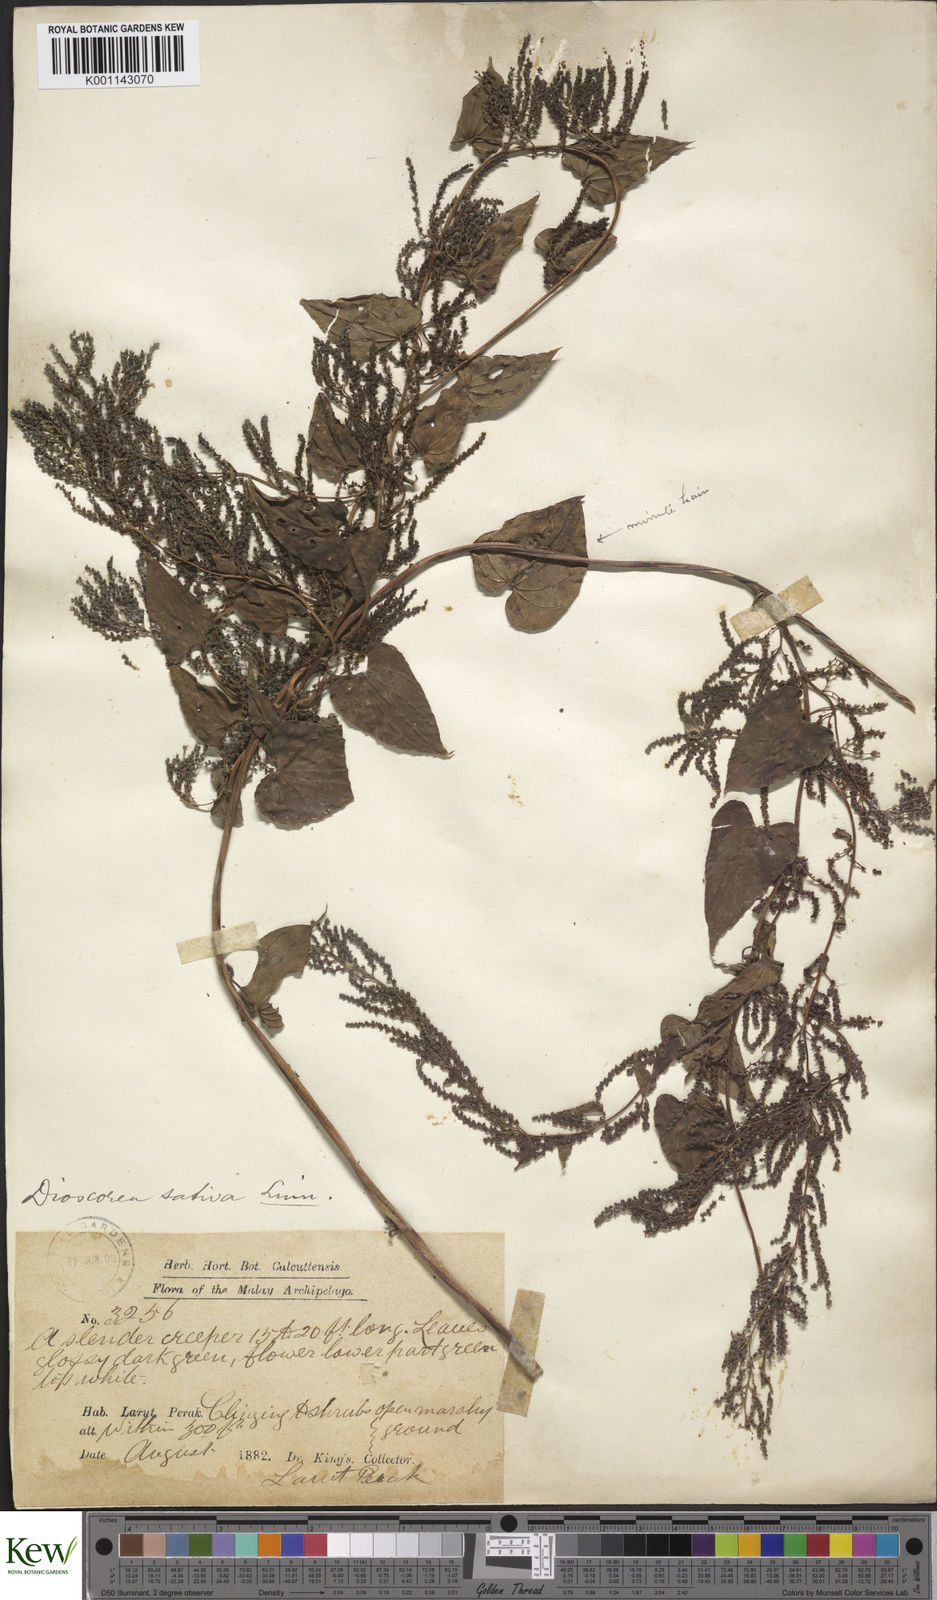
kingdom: Plantae
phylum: Tracheophyta
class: Liliopsida
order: Dioscoreales
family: Dioscoreaceae
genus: Dioscorea
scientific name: Dioscorea bulbifera
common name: Air yam
